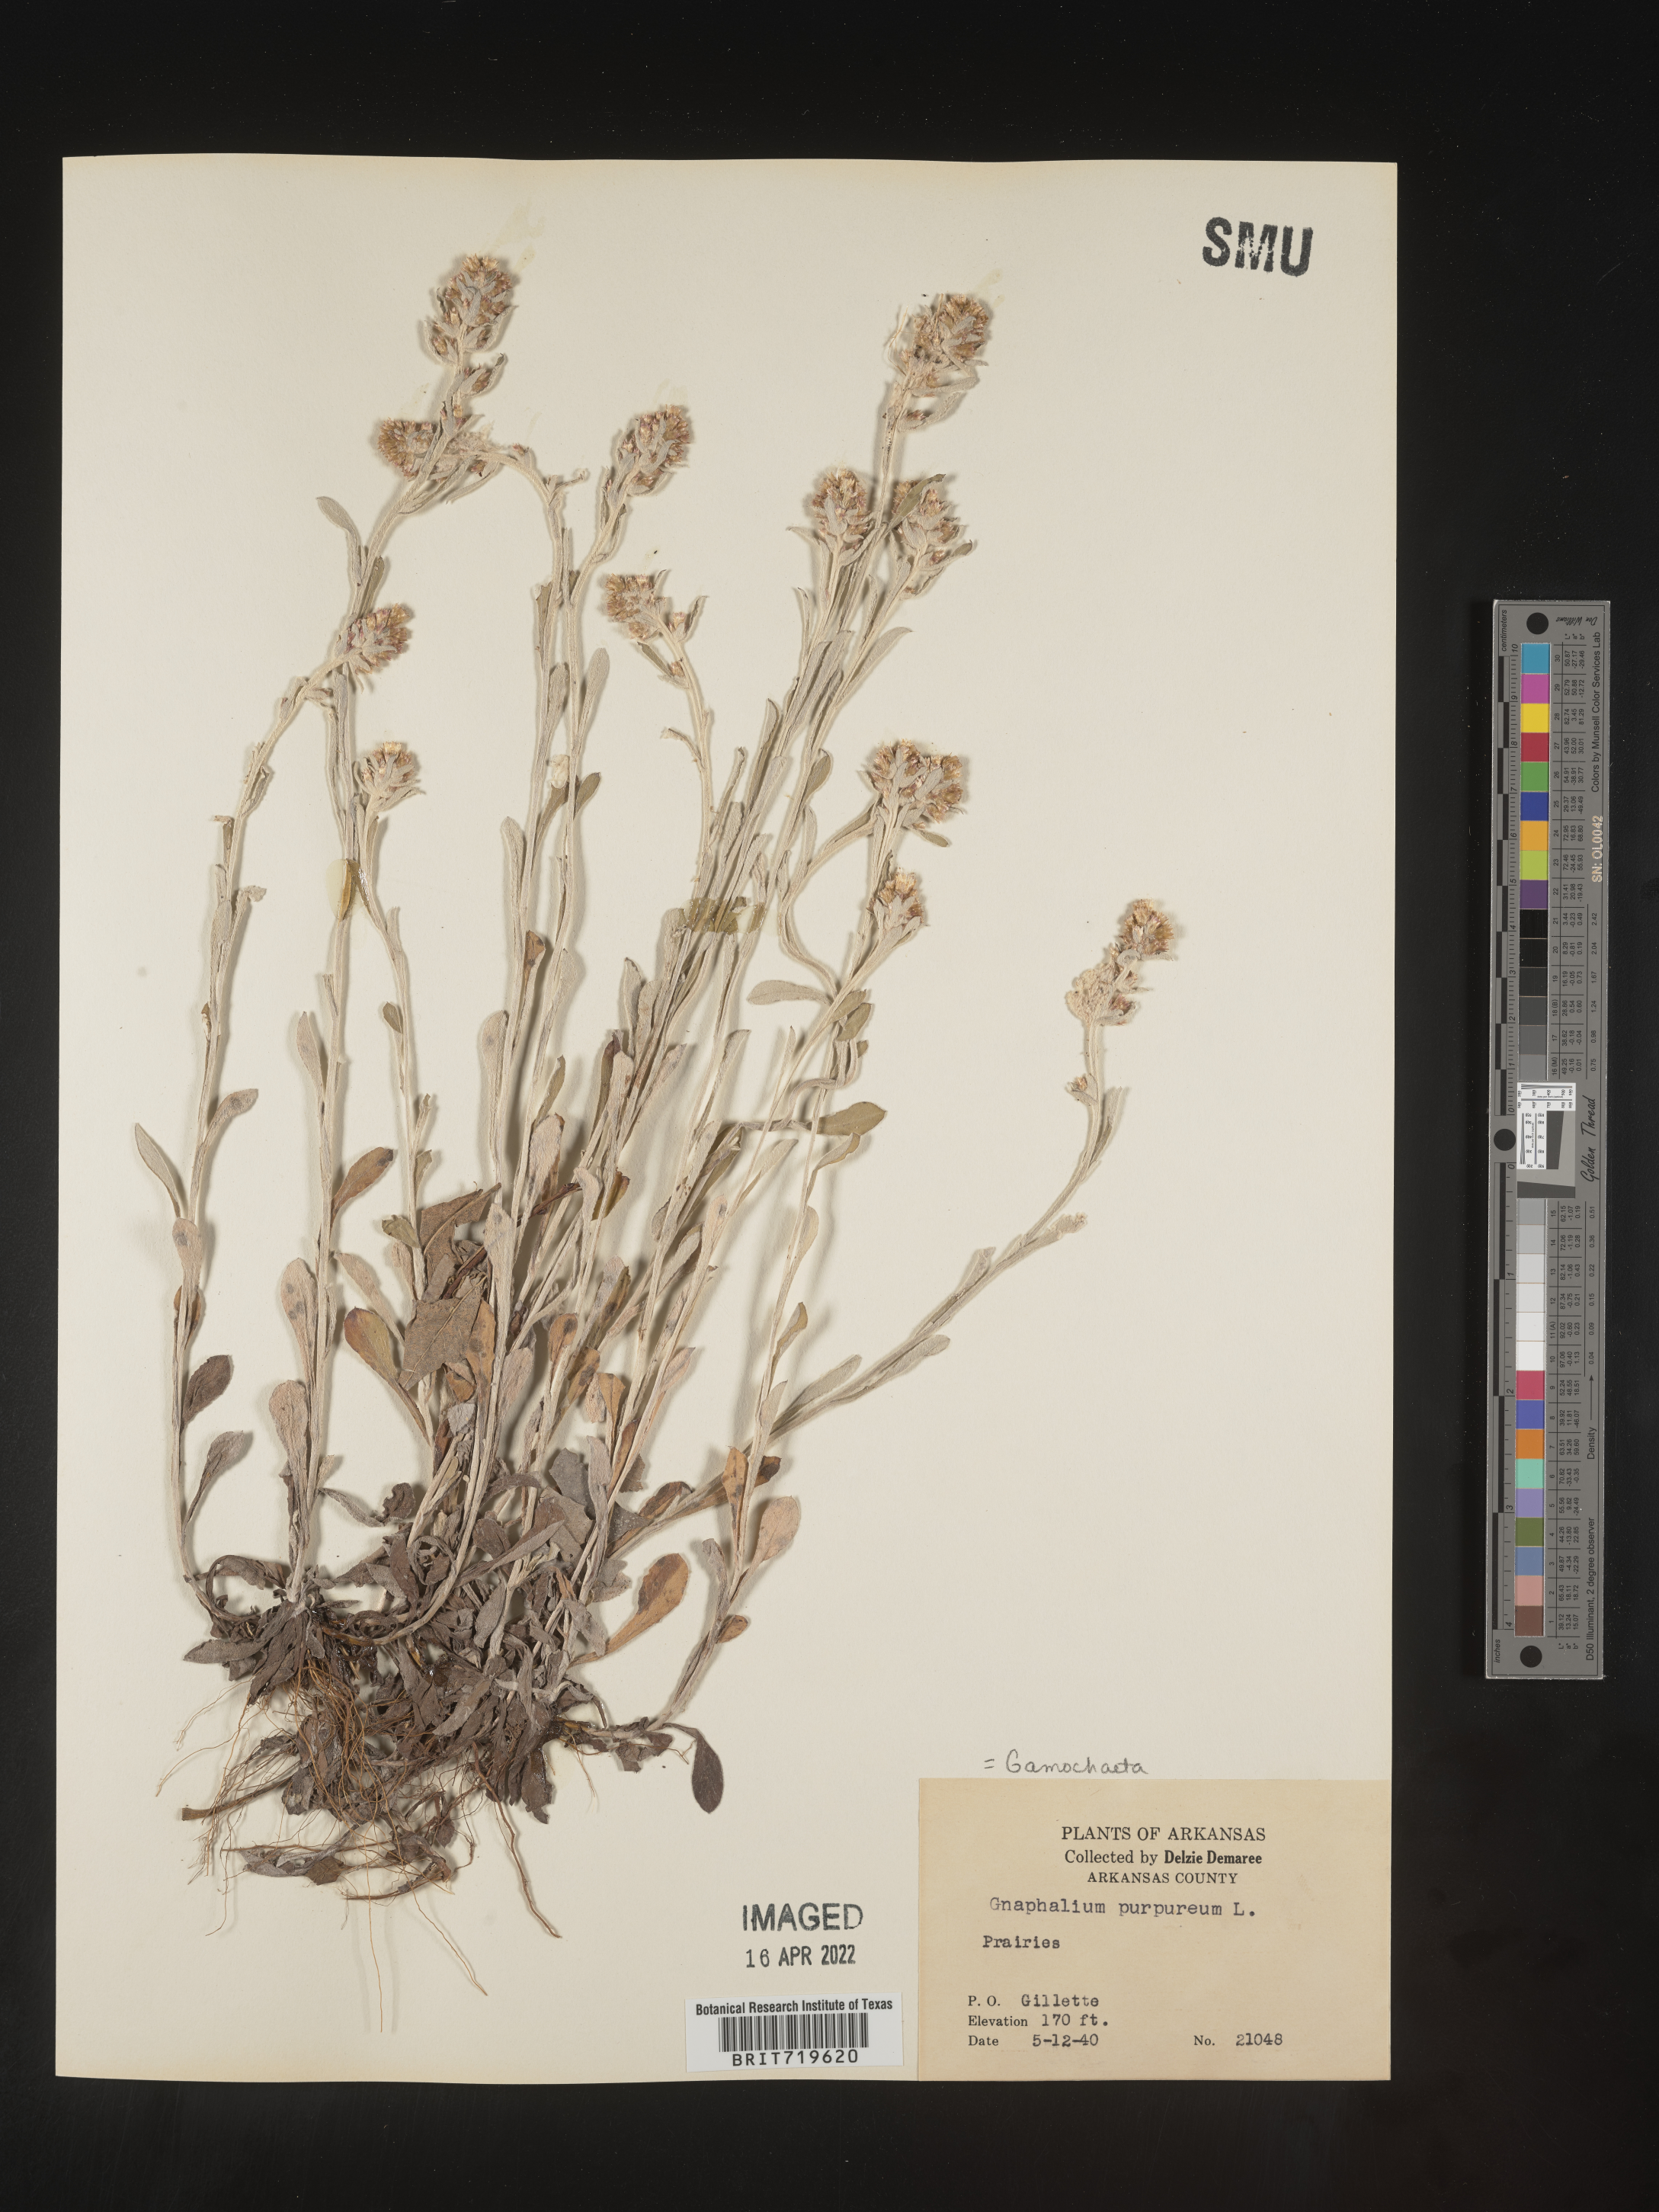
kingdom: Plantae
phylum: Tracheophyta
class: Magnoliopsida
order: Asterales
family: Asteraceae
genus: Gamochaeta
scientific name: Gamochaeta purpurea
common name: Purple cudweed
